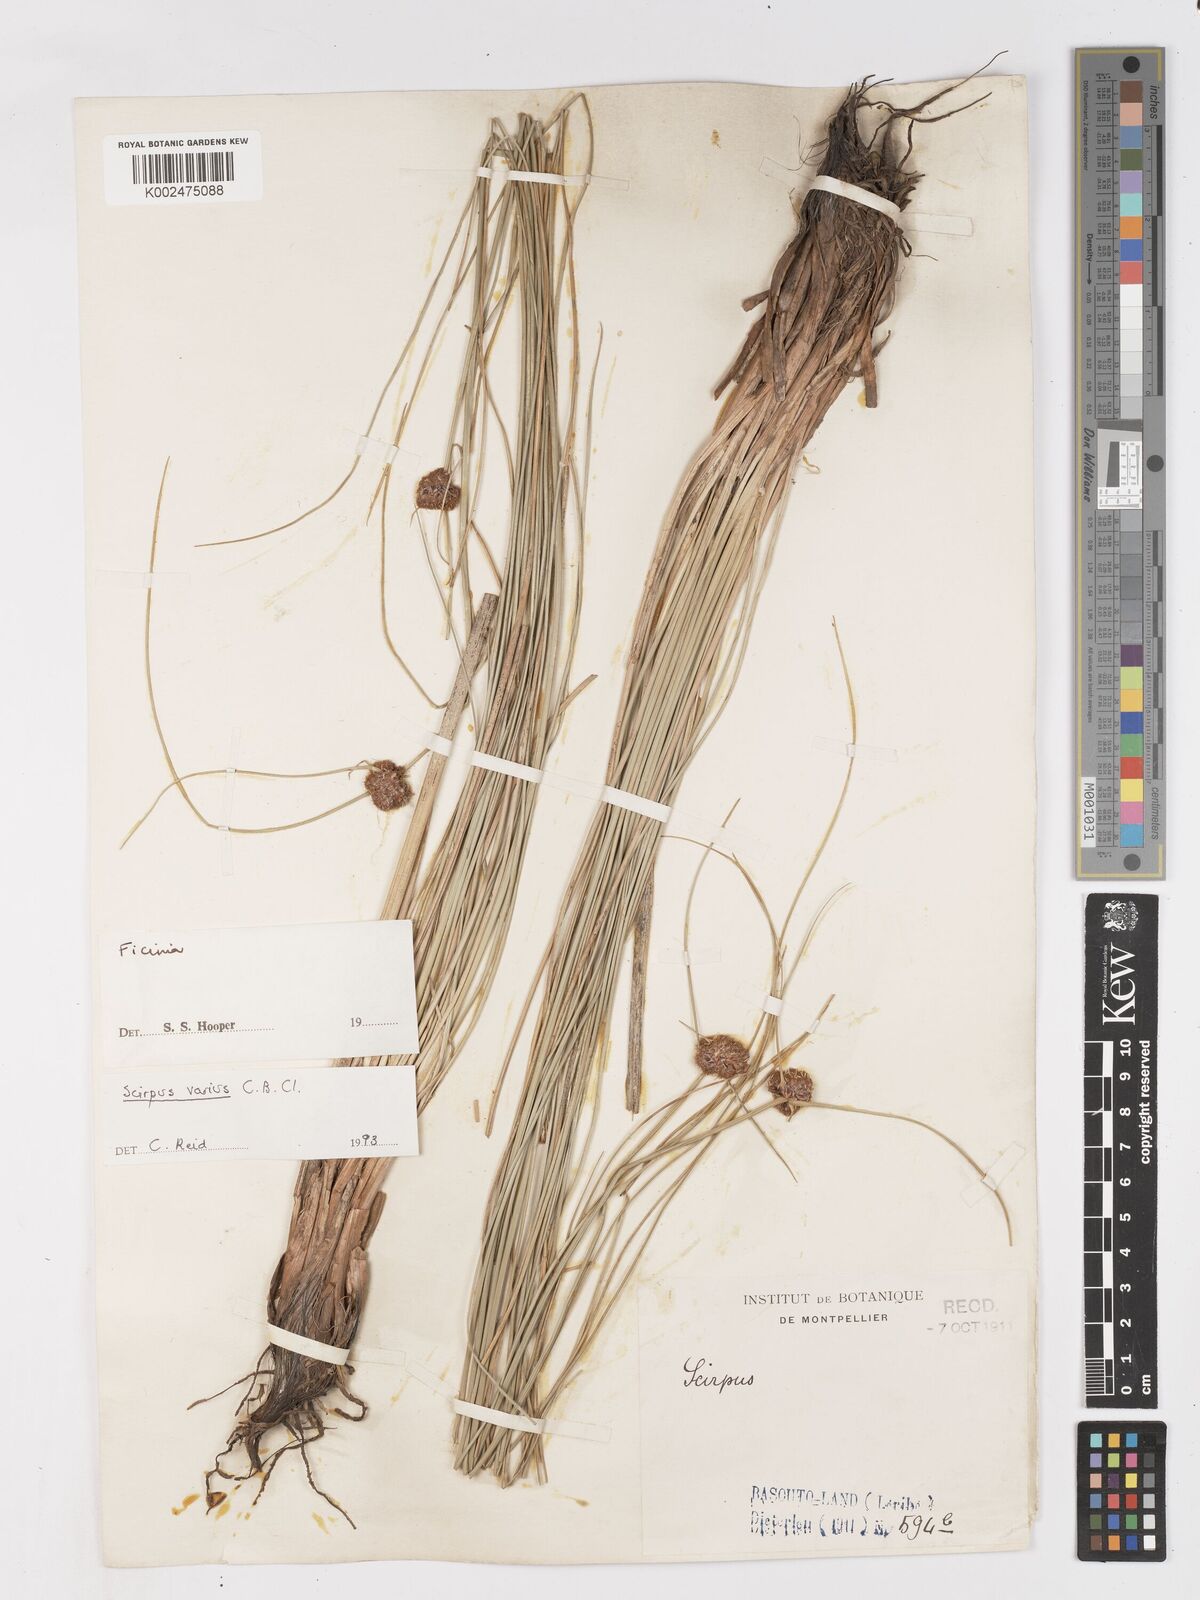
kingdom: Plantae
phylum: Tracheophyta
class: Liliopsida
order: Poales
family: Cyperaceae
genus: Ficinia
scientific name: Ficinia
